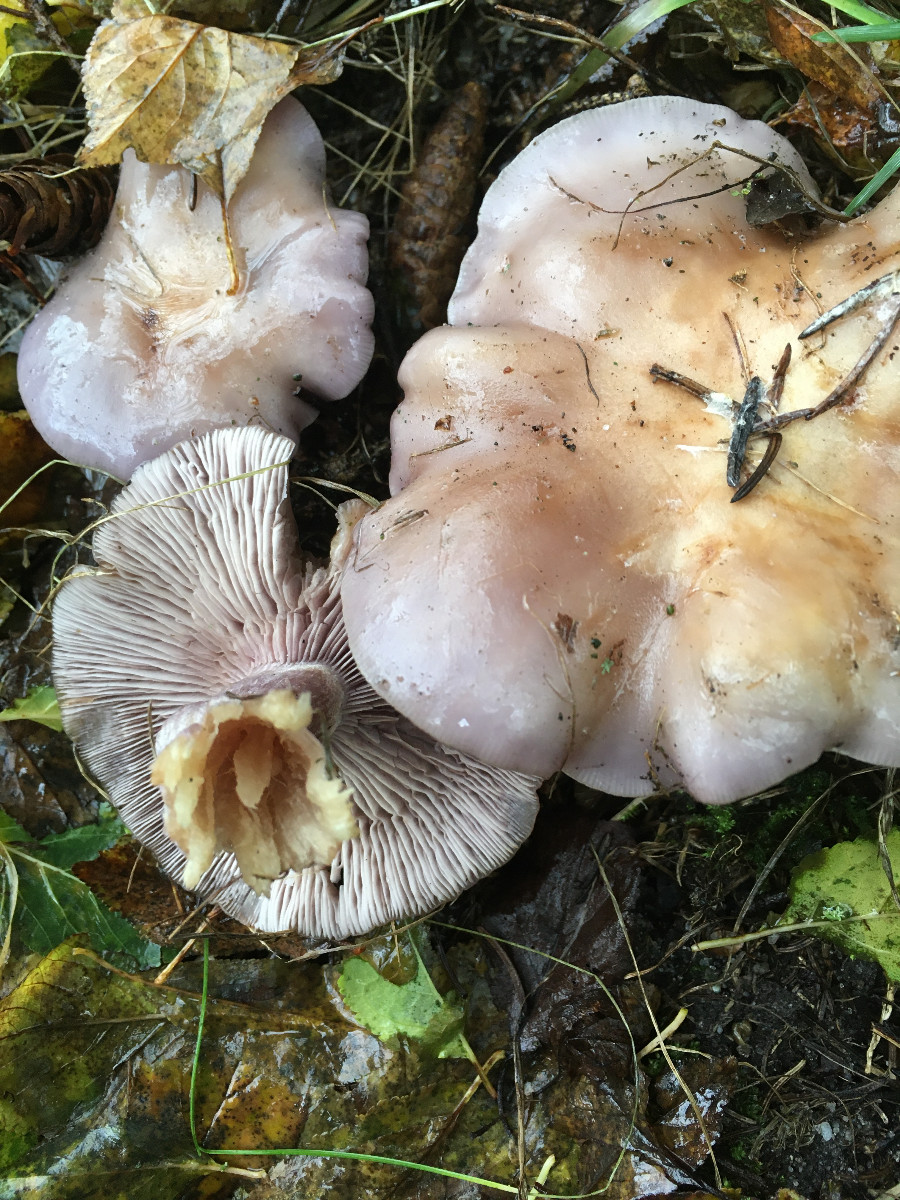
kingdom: Fungi
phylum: Basidiomycota
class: Agaricomycetes
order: Agaricales
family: Tricholomataceae
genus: Lepista
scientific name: Lepista nuda
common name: violet hekseringshat
